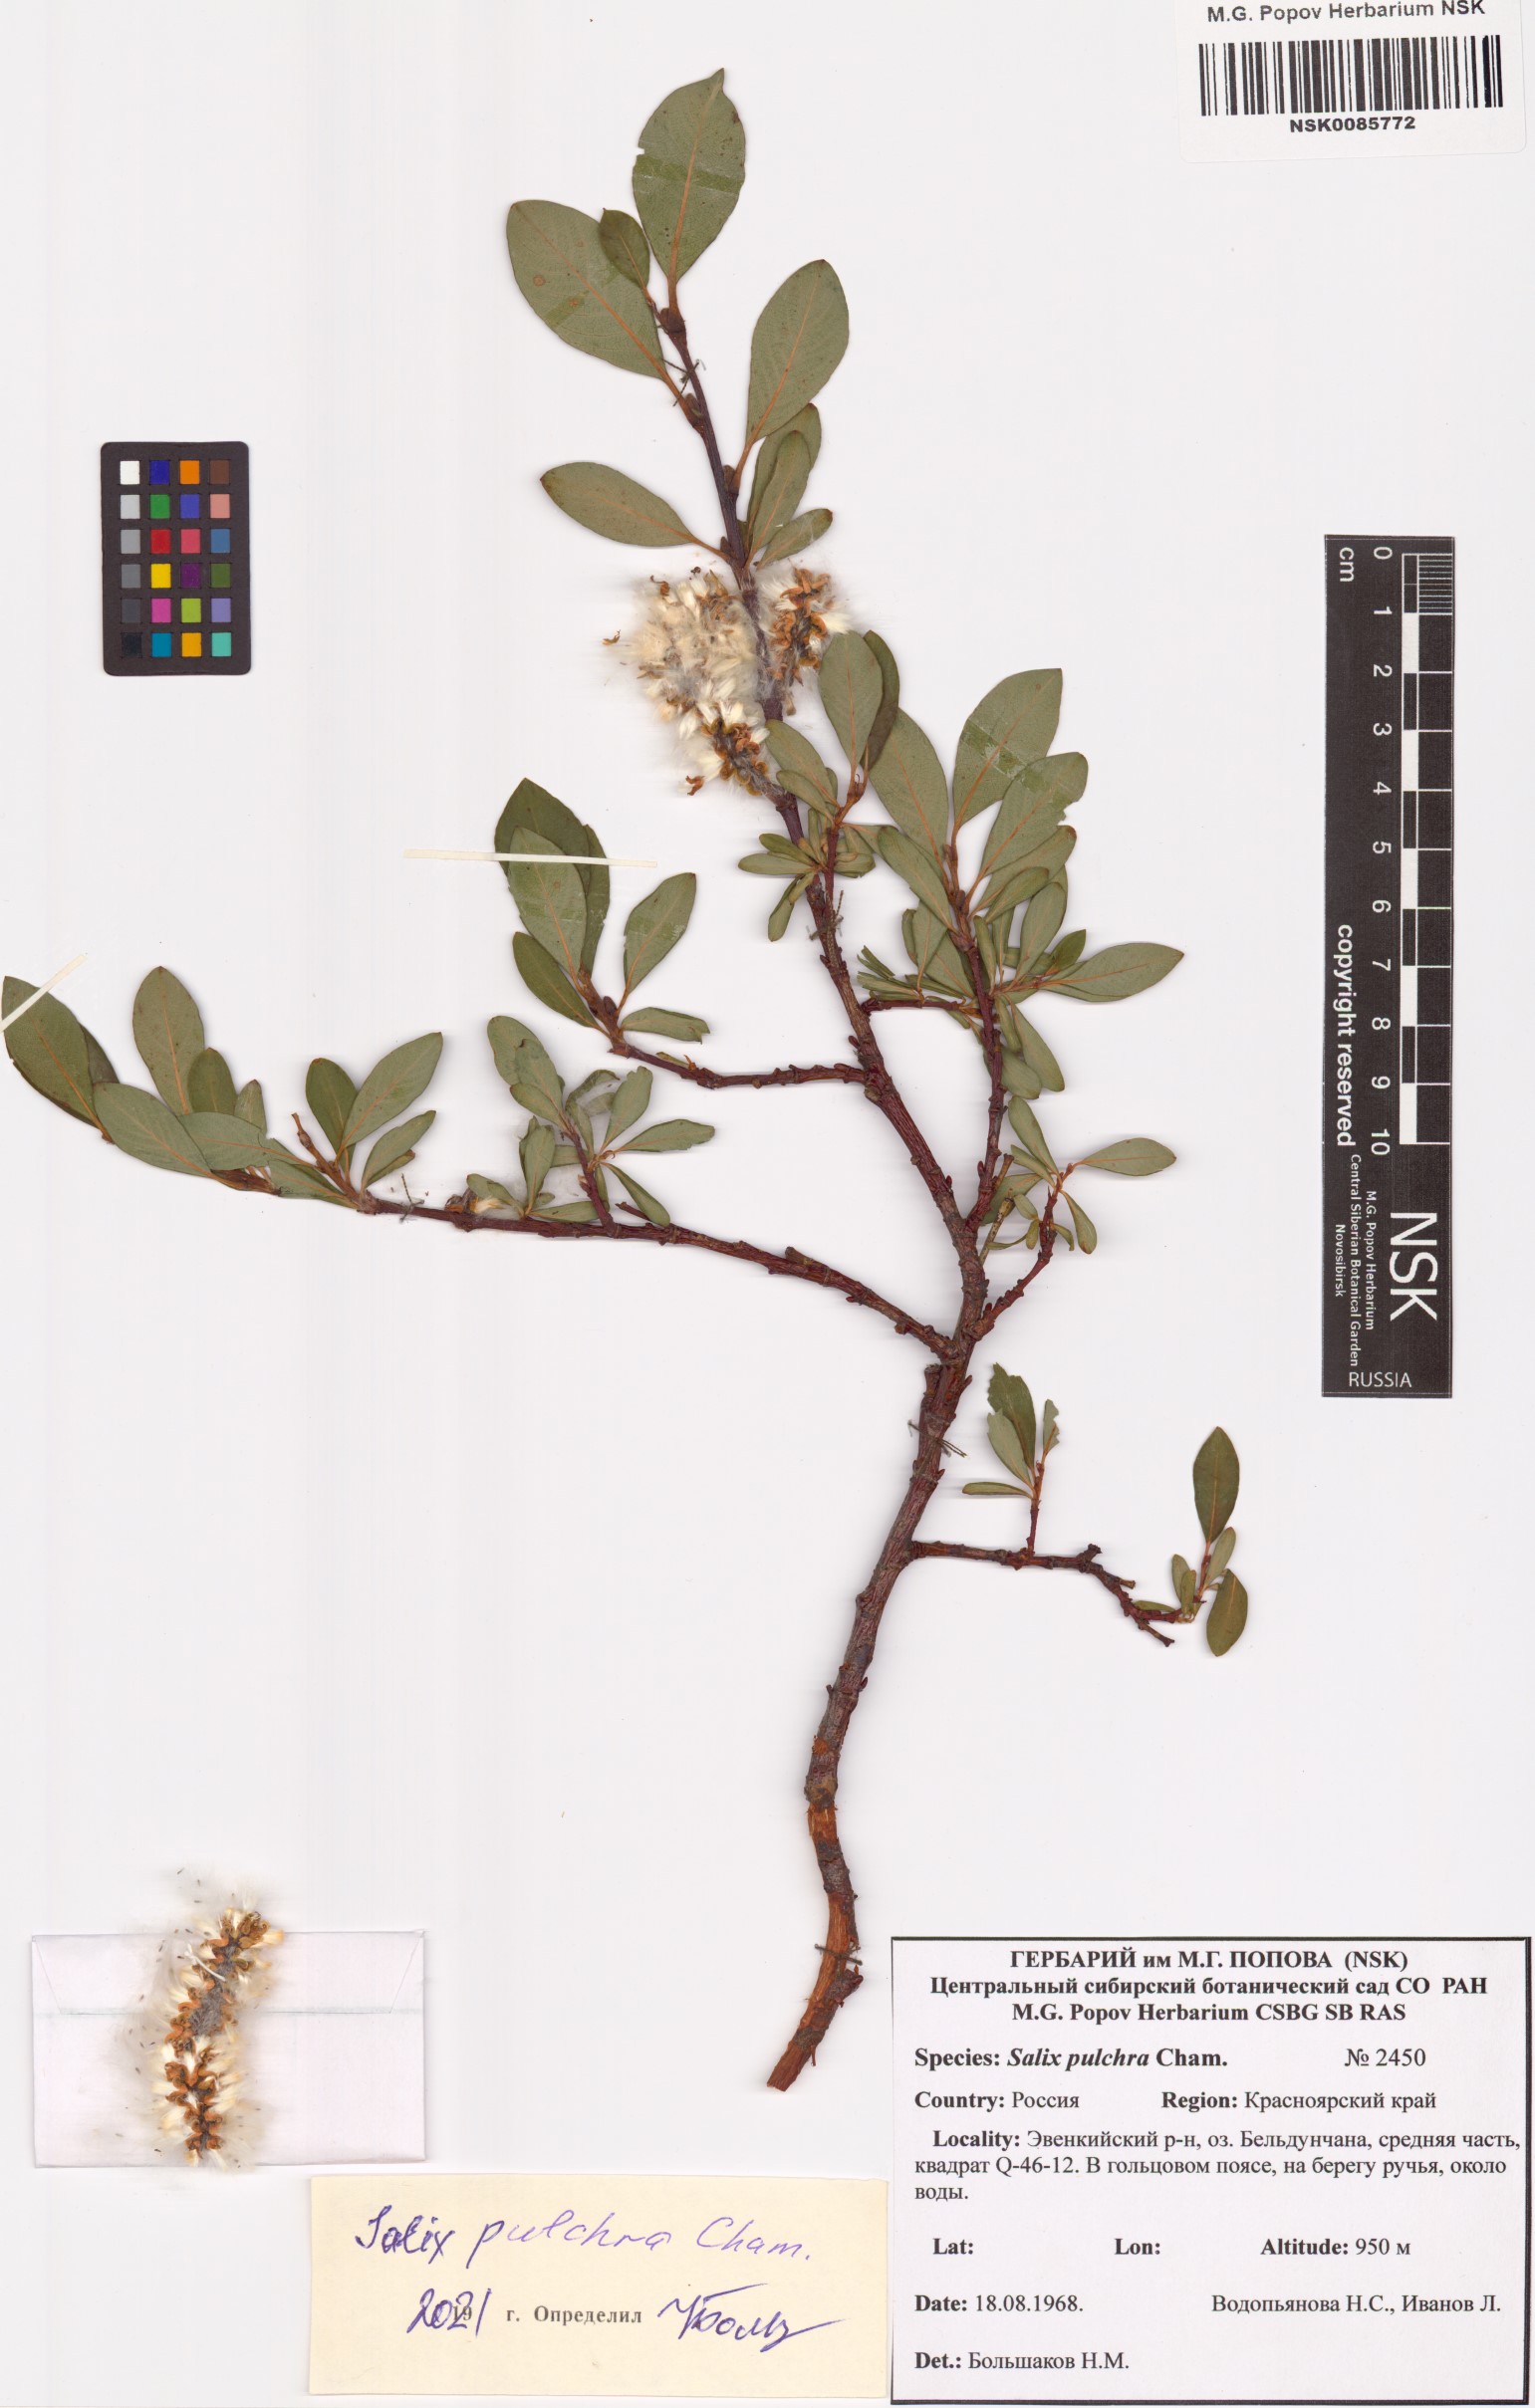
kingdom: Plantae
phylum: Tracheophyta
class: Magnoliopsida
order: Malpighiales
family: Salicaceae
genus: Salix
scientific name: Salix pulchra
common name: Diamond-leaved willow
